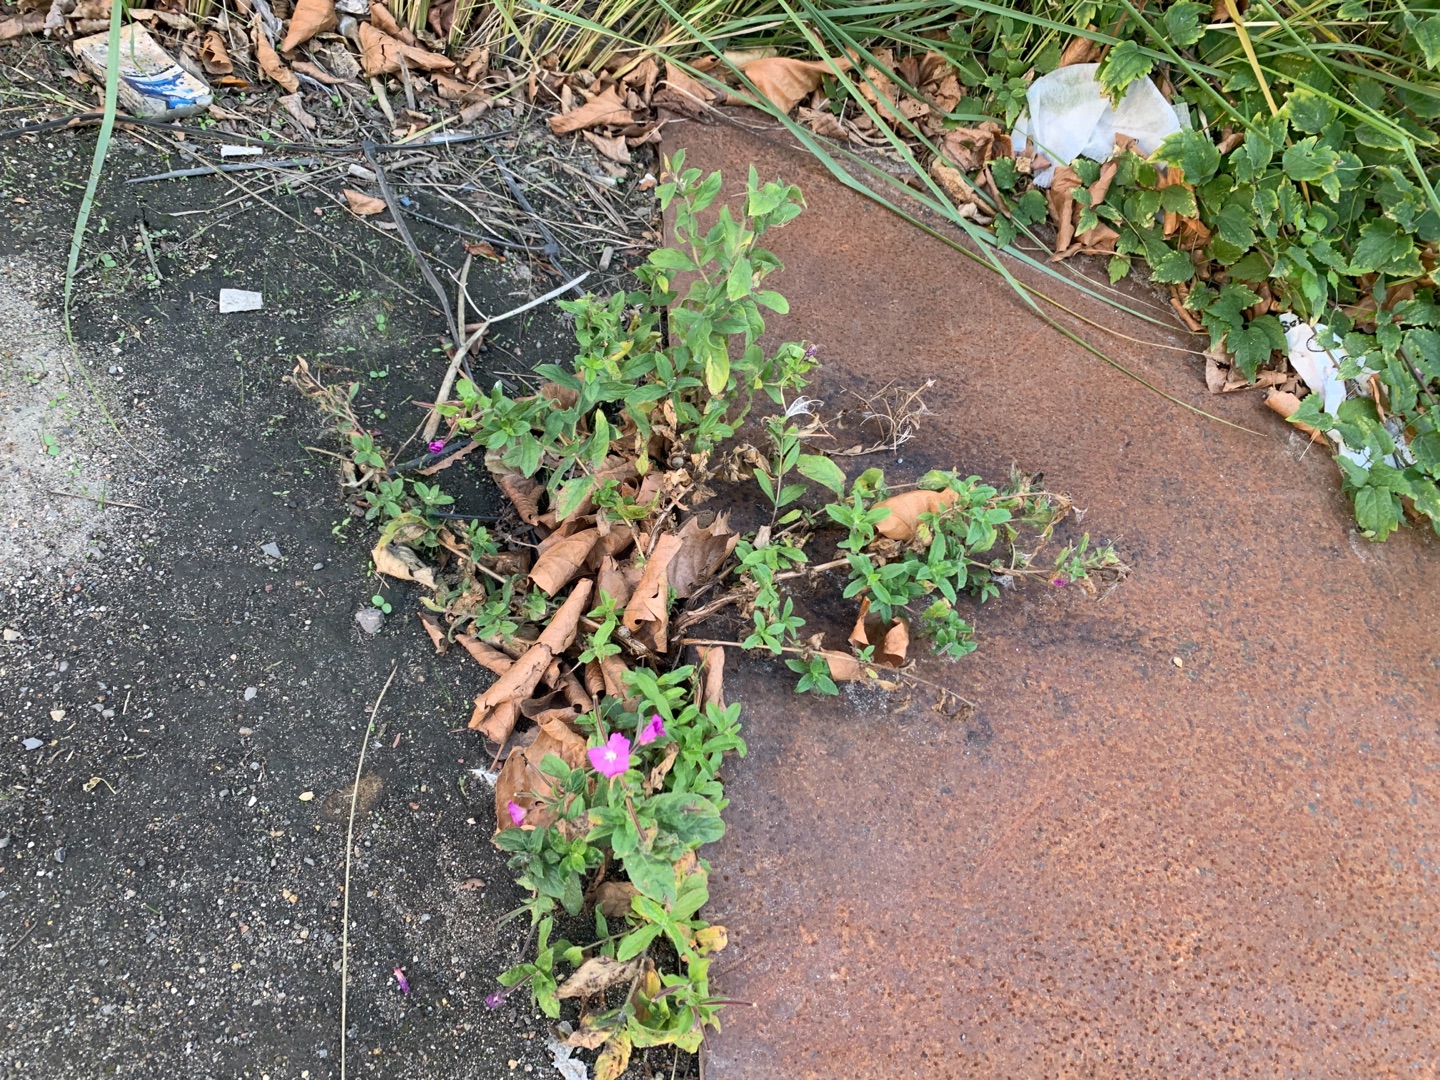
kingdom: Plantae
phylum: Tracheophyta
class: Magnoliopsida
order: Myrtales
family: Onagraceae
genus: Epilobium
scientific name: Epilobium hirsutum
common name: Lådden dueurt
